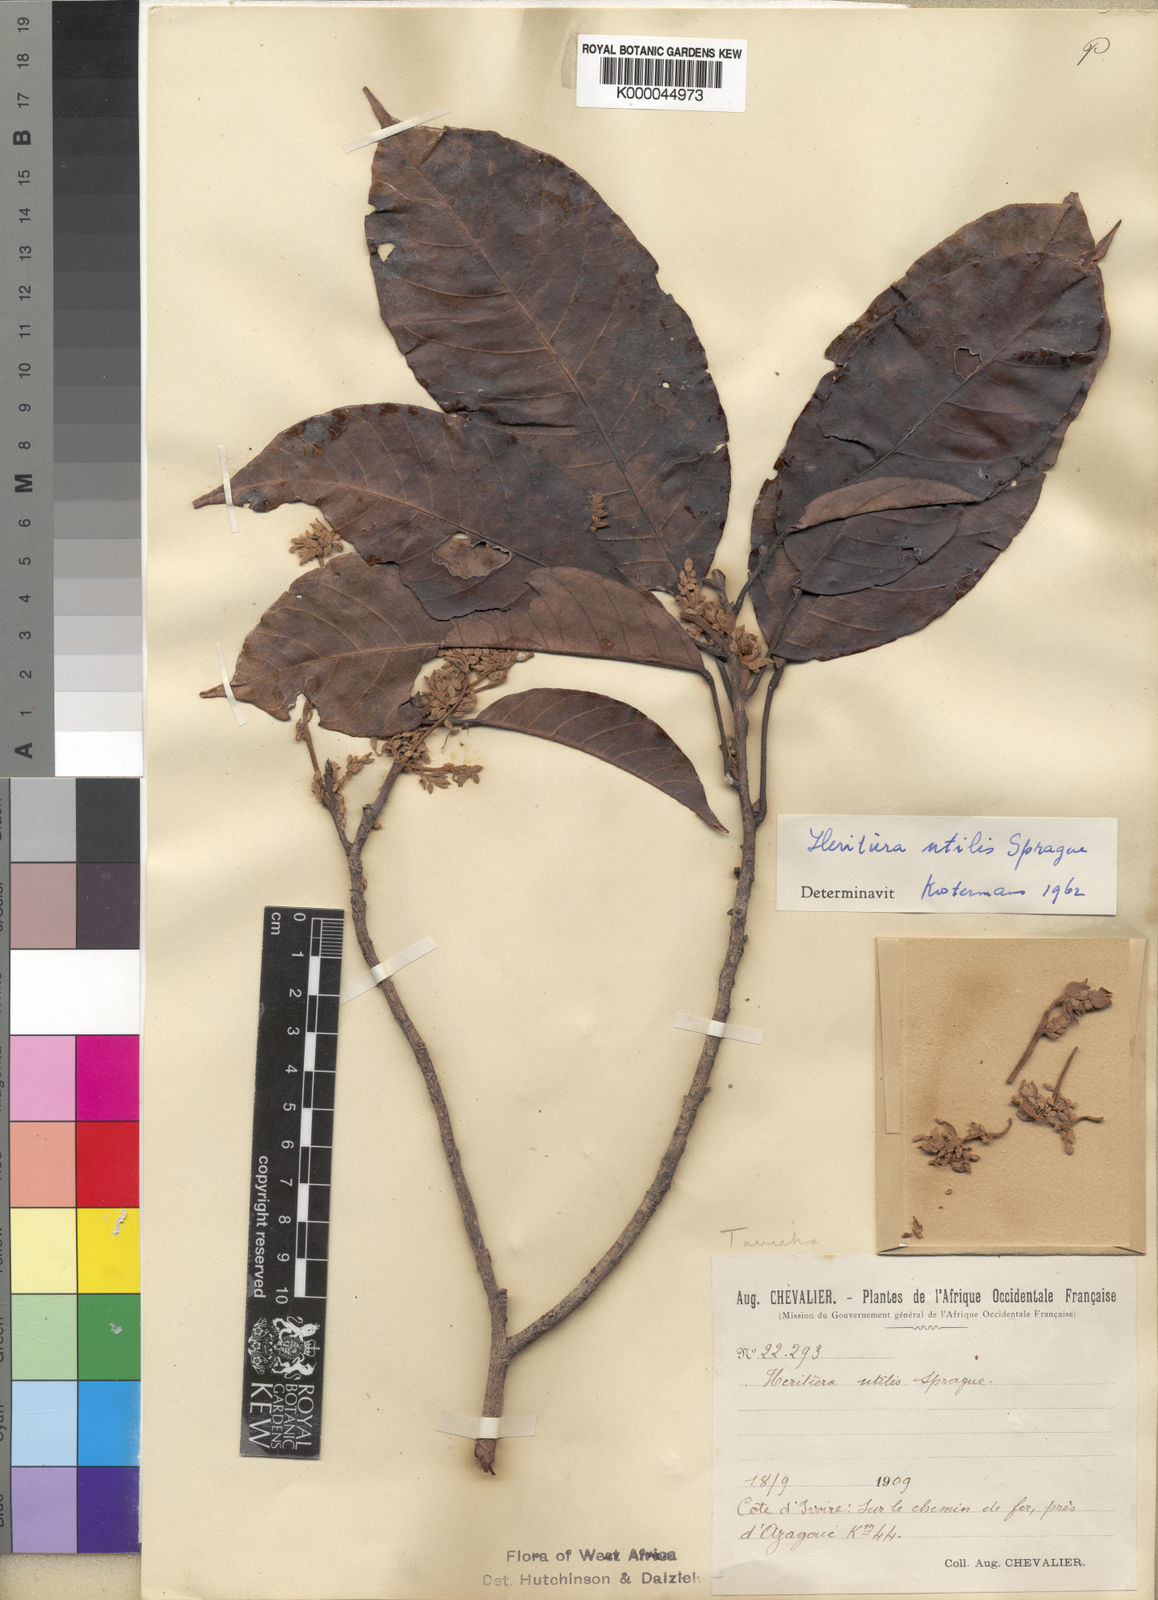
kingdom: Plantae
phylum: Tracheophyta
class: Magnoliopsida
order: Malvales
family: Malvaceae
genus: Heritiera
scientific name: Heritiera utilis
